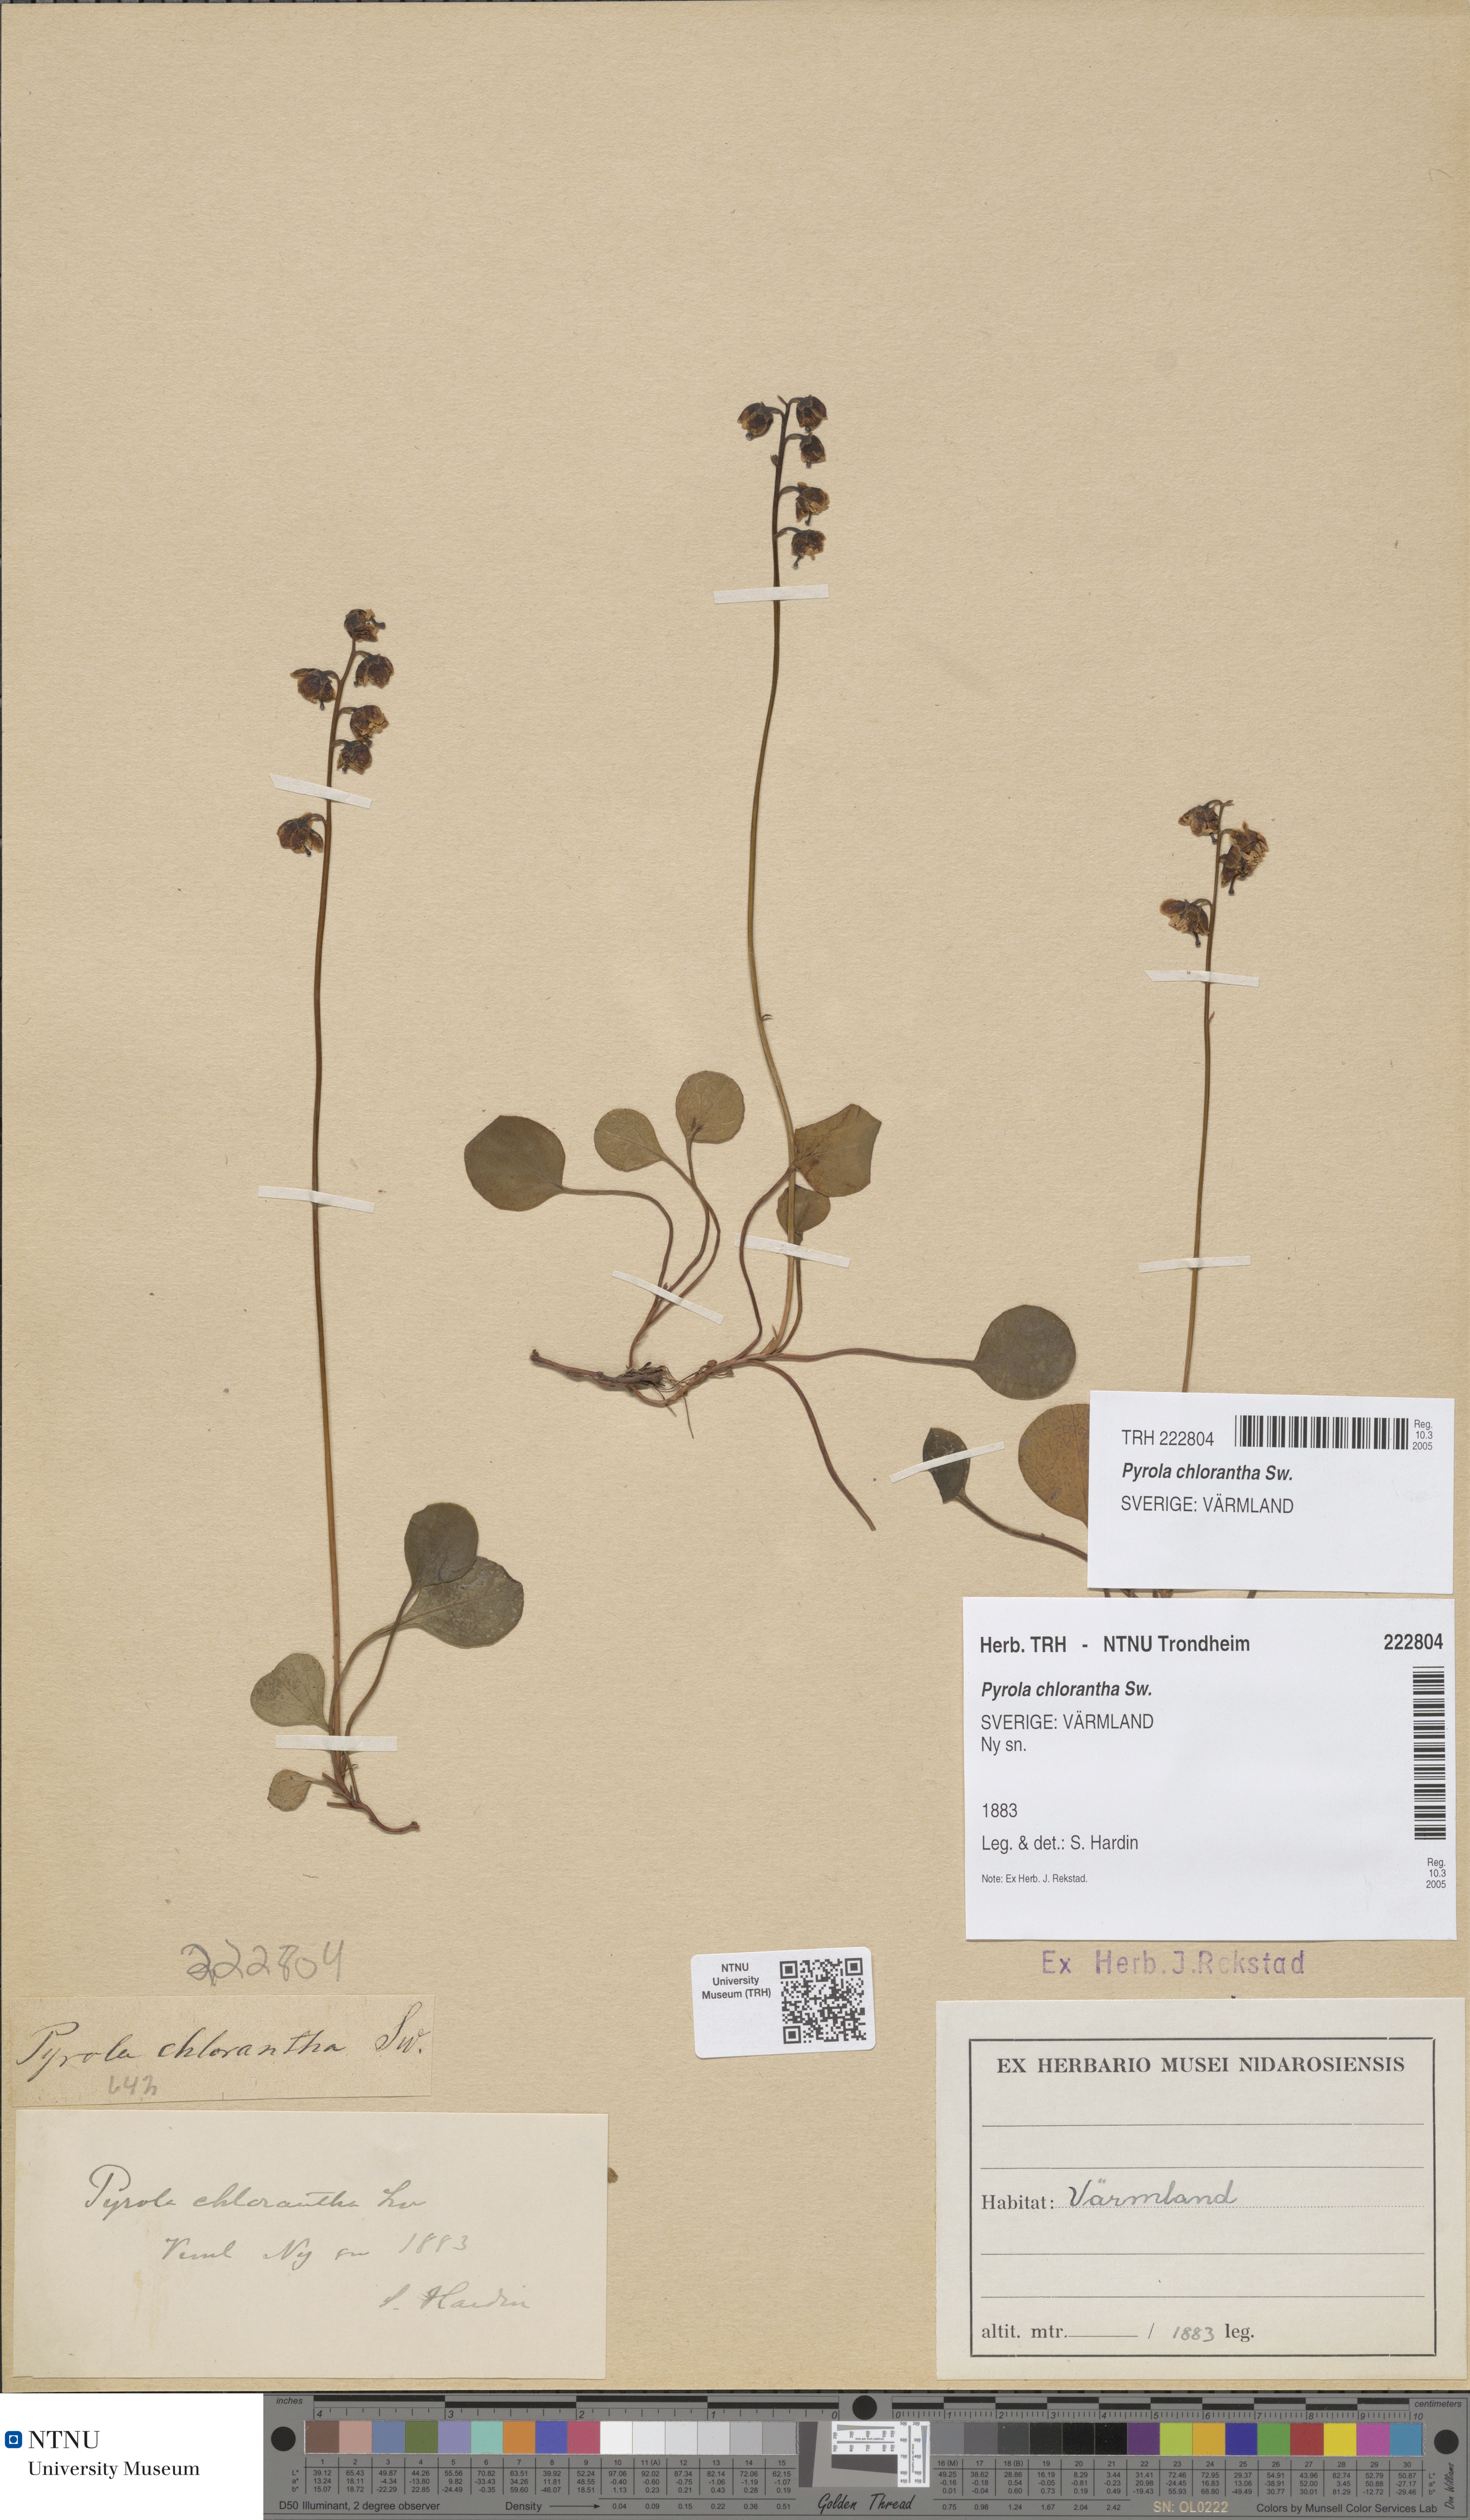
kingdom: Plantae
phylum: Tracheophyta
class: Magnoliopsida
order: Ericales
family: Ericaceae
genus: Pyrola
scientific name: Pyrola chlorantha
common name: Green wintergreen
